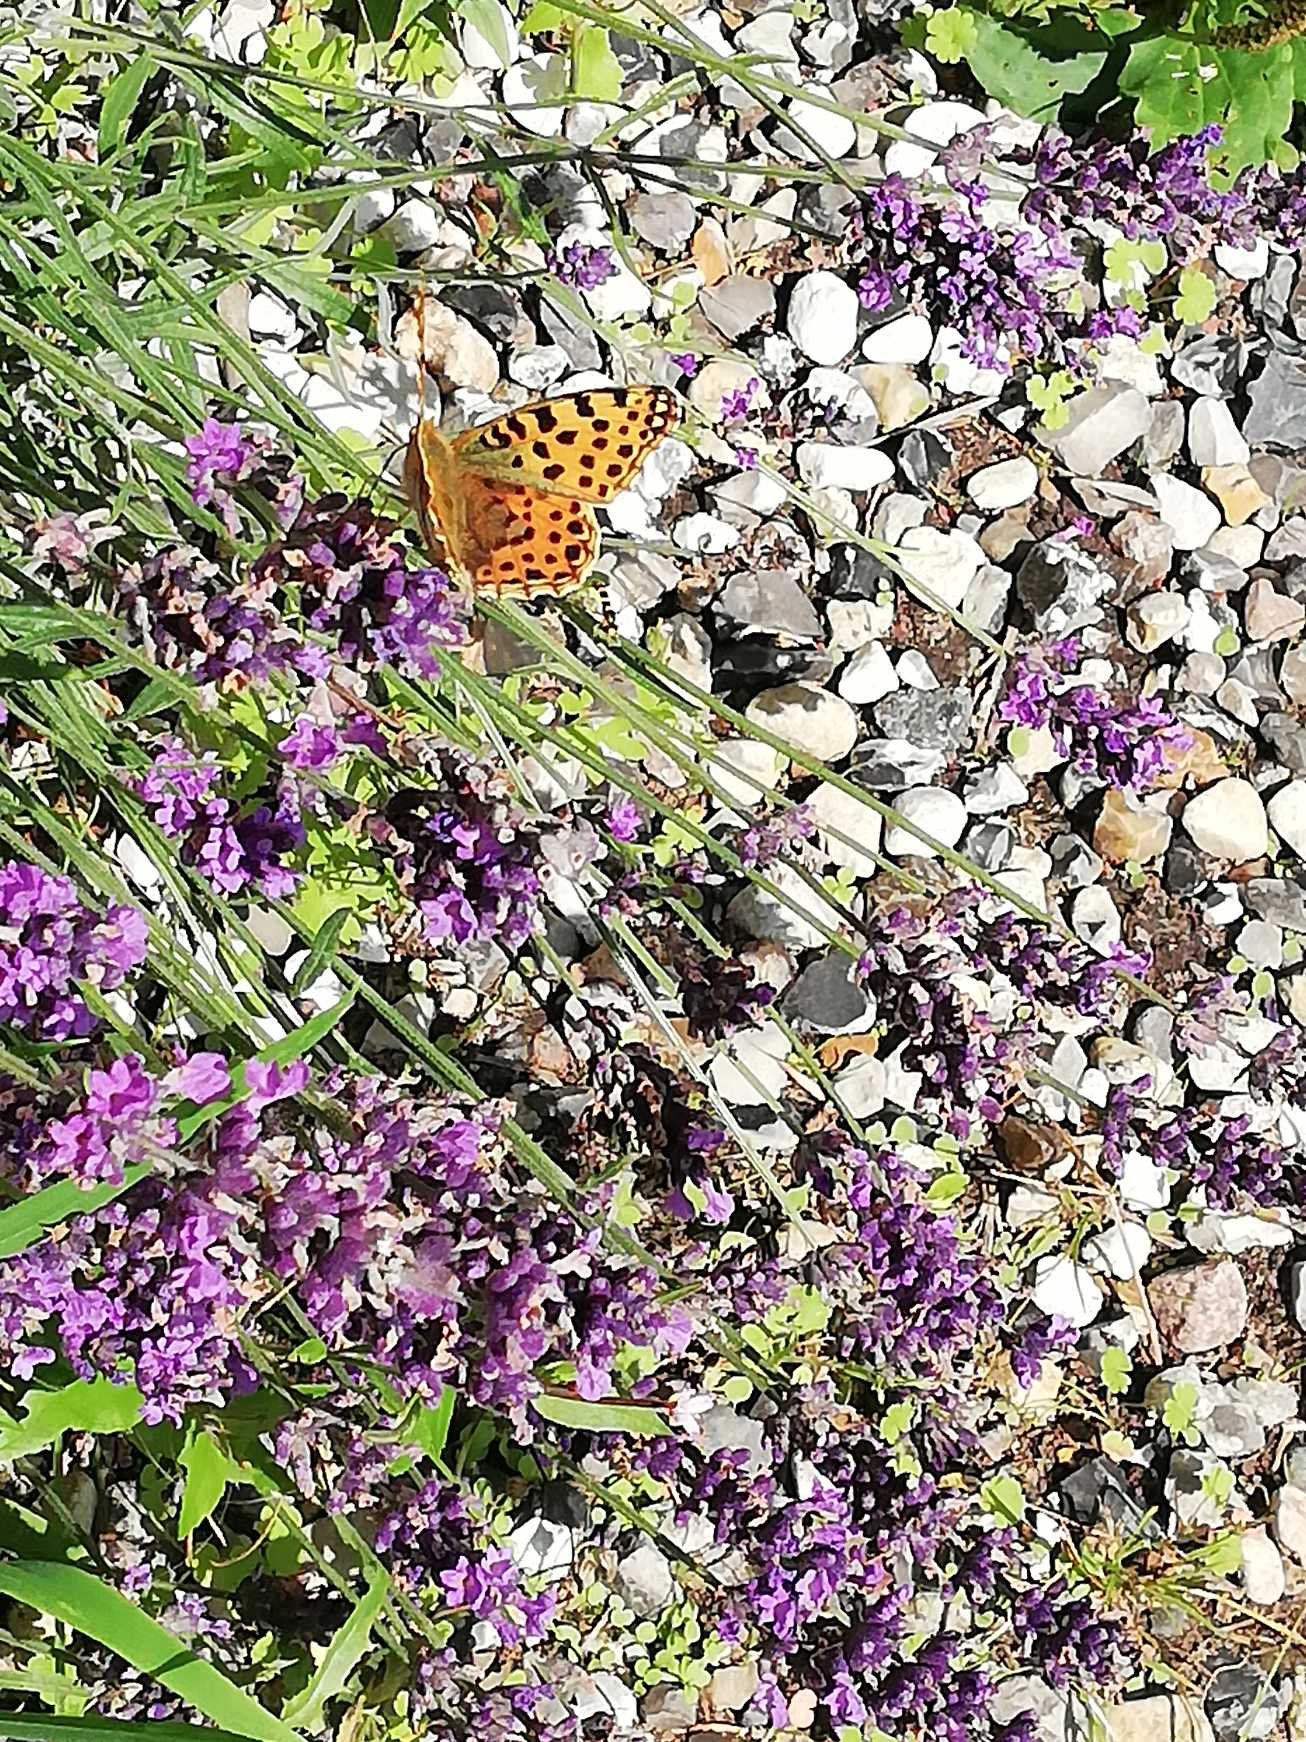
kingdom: Animalia
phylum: Arthropoda
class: Insecta
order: Lepidoptera
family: Nymphalidae
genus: Issoria
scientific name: Issoria lathonia
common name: Storplettet perlemorsommerfugl
